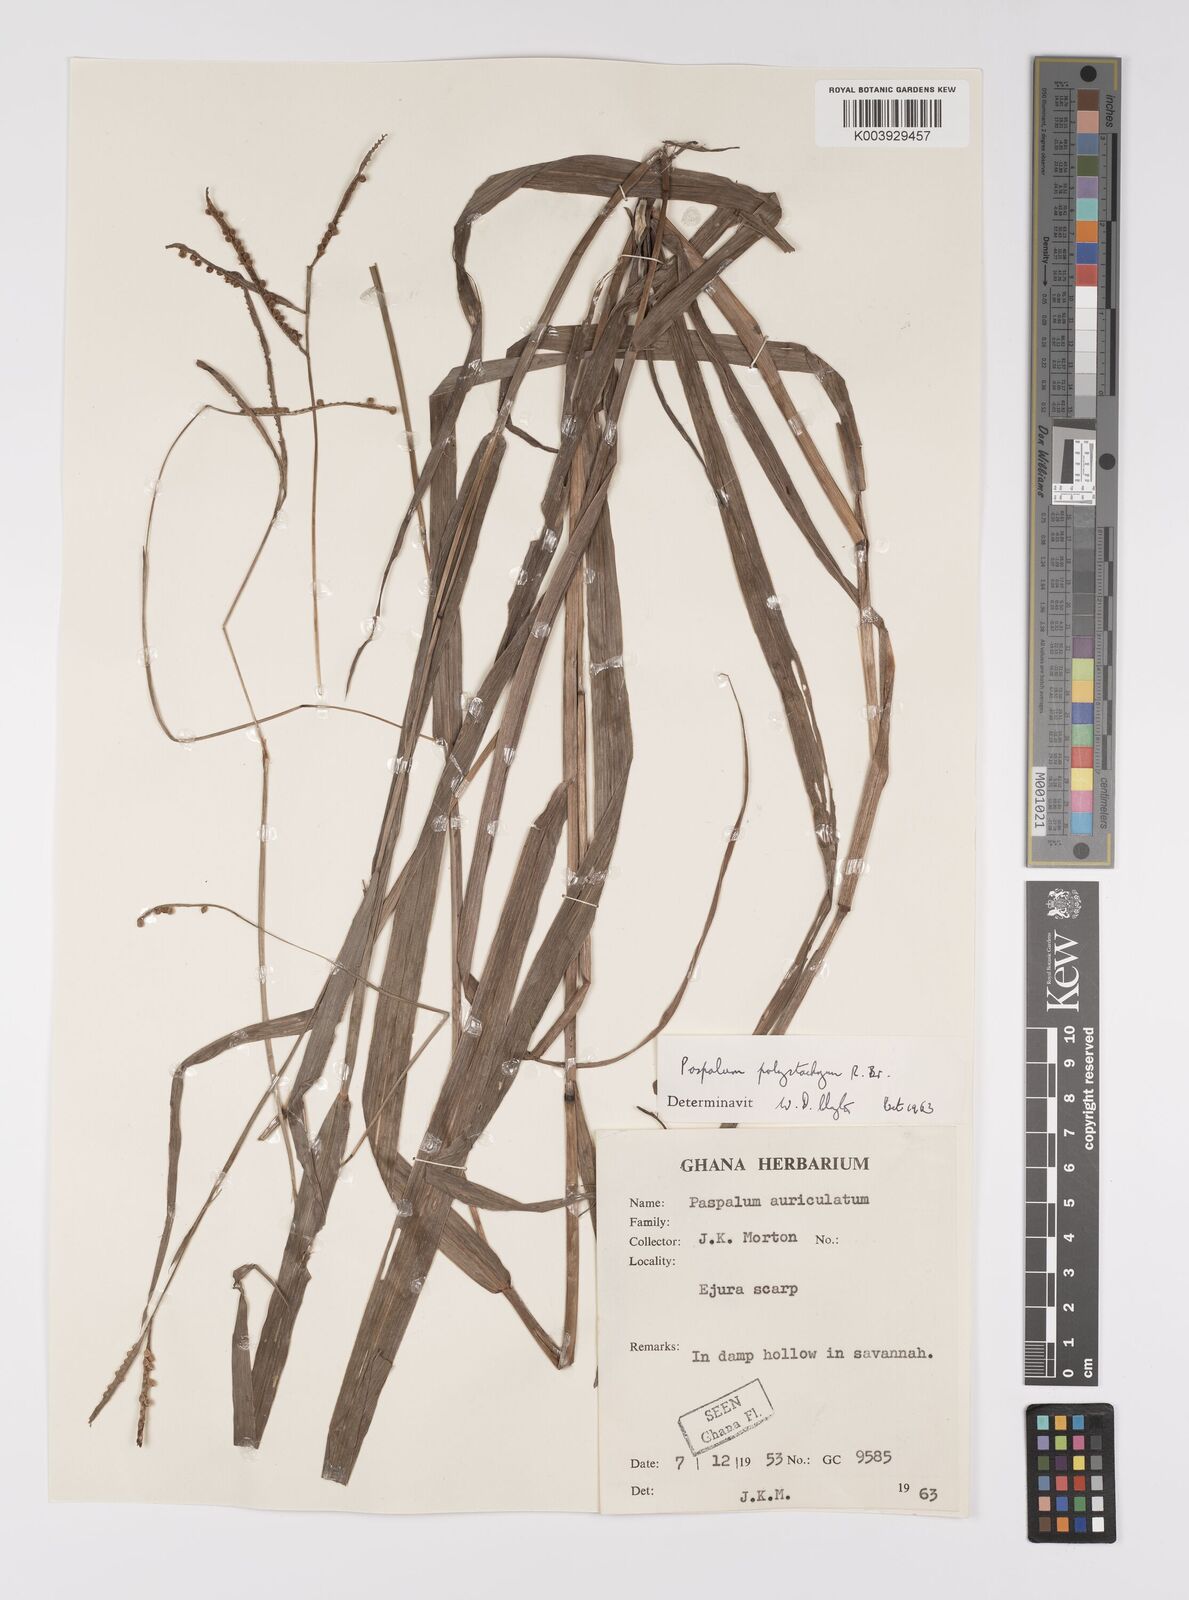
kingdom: Plantae
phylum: Tracheophyta
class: Liliopsida
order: Poales
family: Poaceae
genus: Paspalum
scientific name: Paspalum scrobiculatum
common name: Kodo millet
